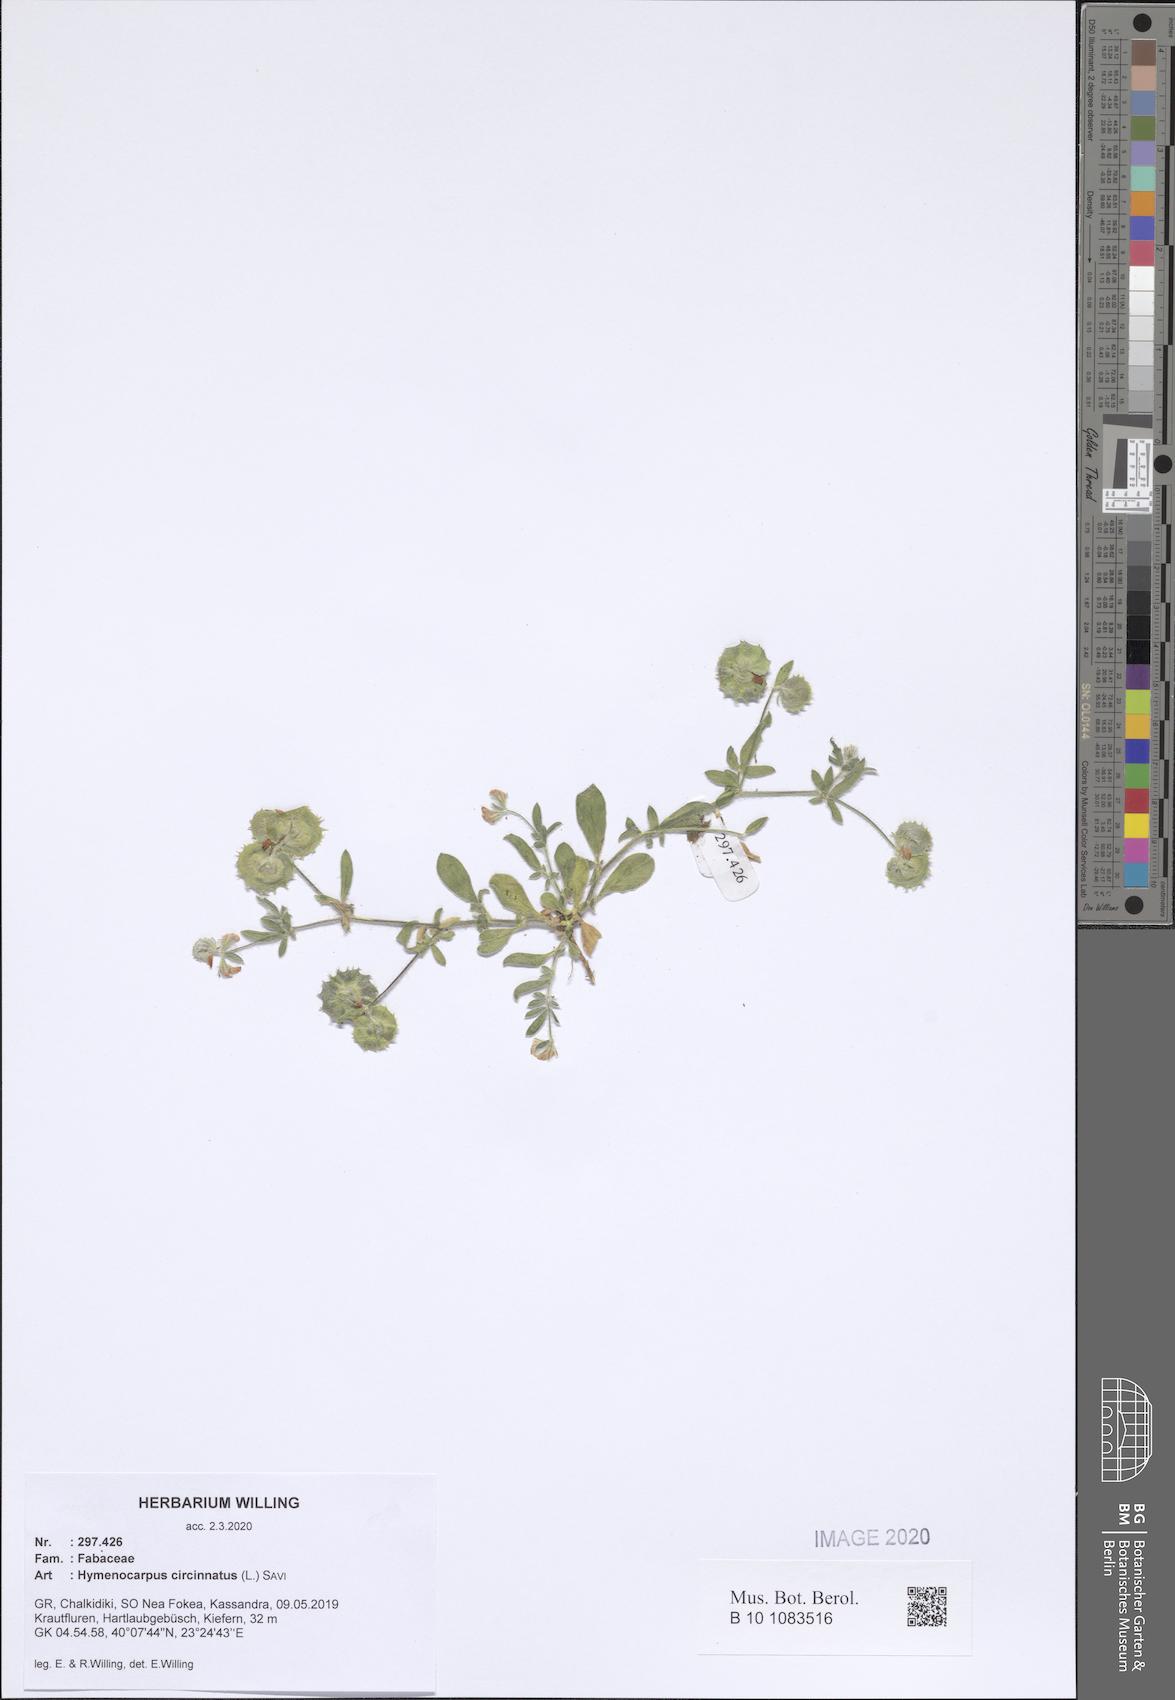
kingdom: Plantae
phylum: Tracheophyta
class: Magnoliopsida
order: Fabales
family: Fabaceae
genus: Anthyllis
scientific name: Anthyllis circinnata
